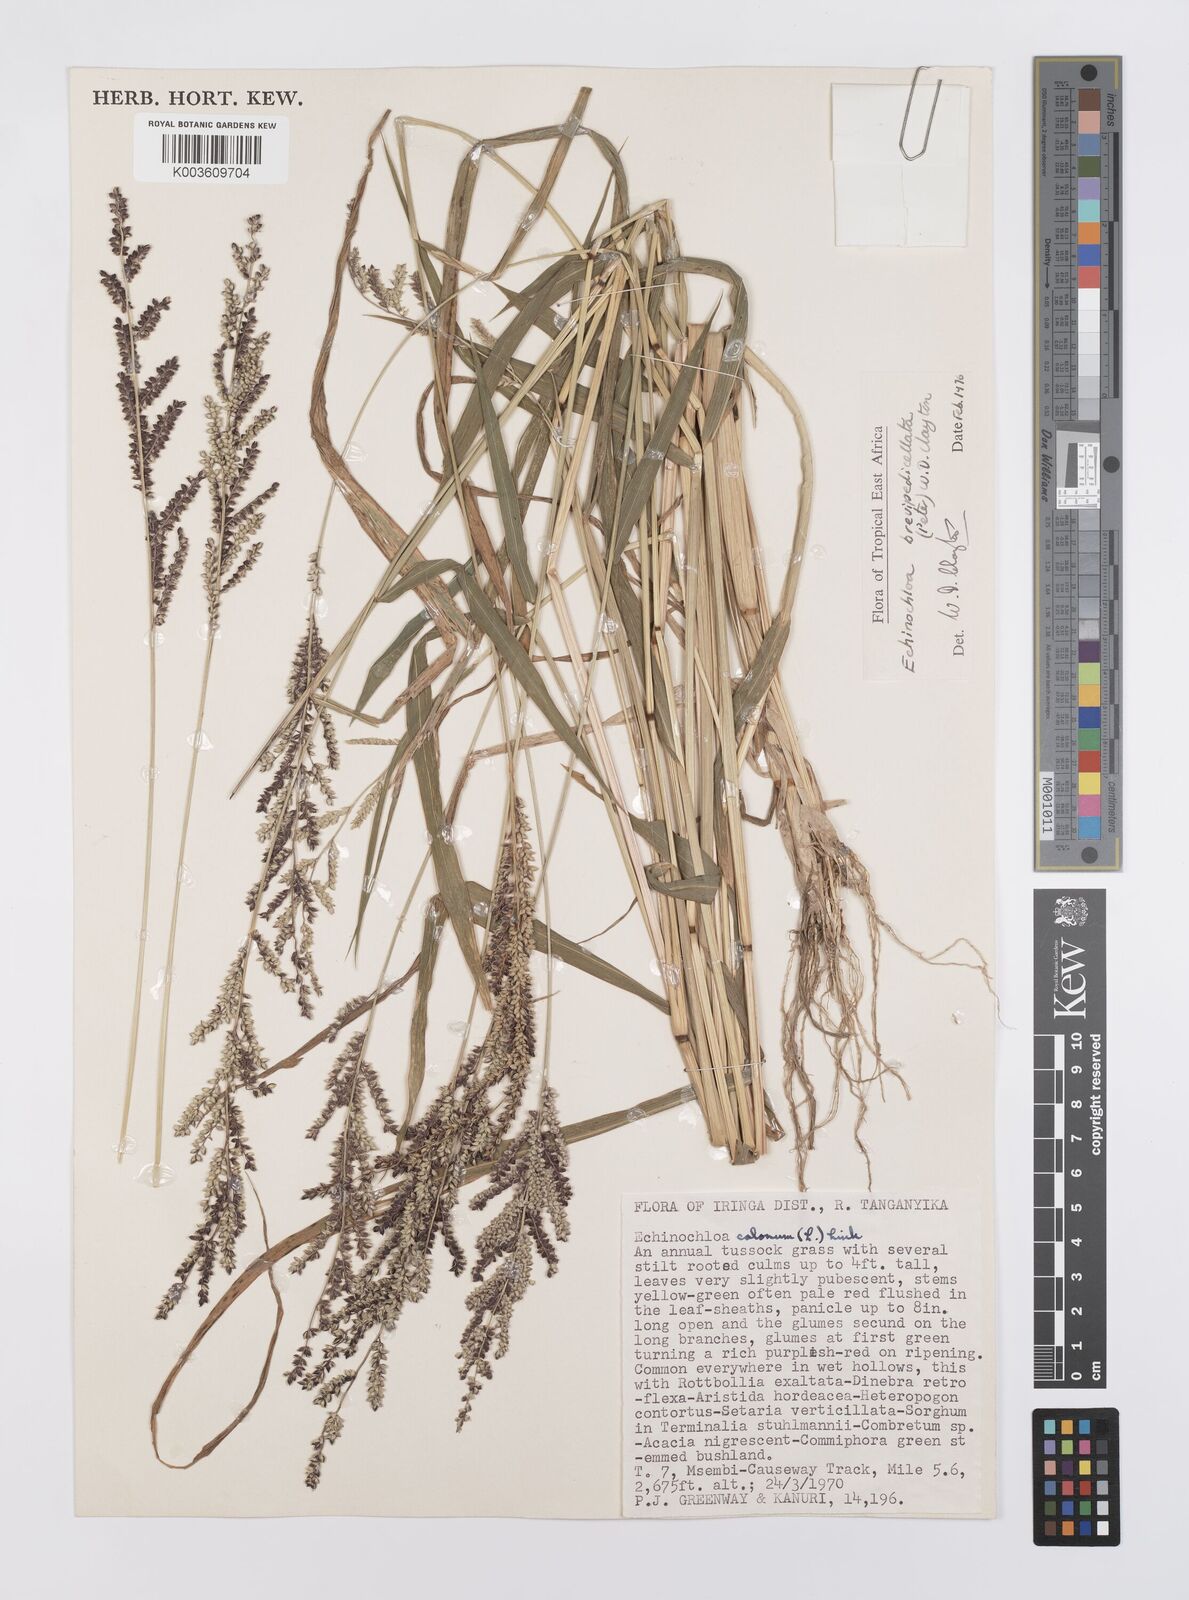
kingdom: Plantae
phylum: Tracheophyta
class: Liliopsida
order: Poales
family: Poaceae
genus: Echinochloa
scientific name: Echinochloa brevipedicellata
